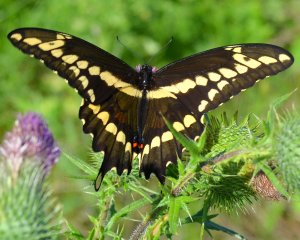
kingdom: Animalia
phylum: Arthropoda
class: Insecta
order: Lepidoptera
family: Papilionidae
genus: Papilio
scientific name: Papilio cresphontes
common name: Eastern Giant Swallowtail
